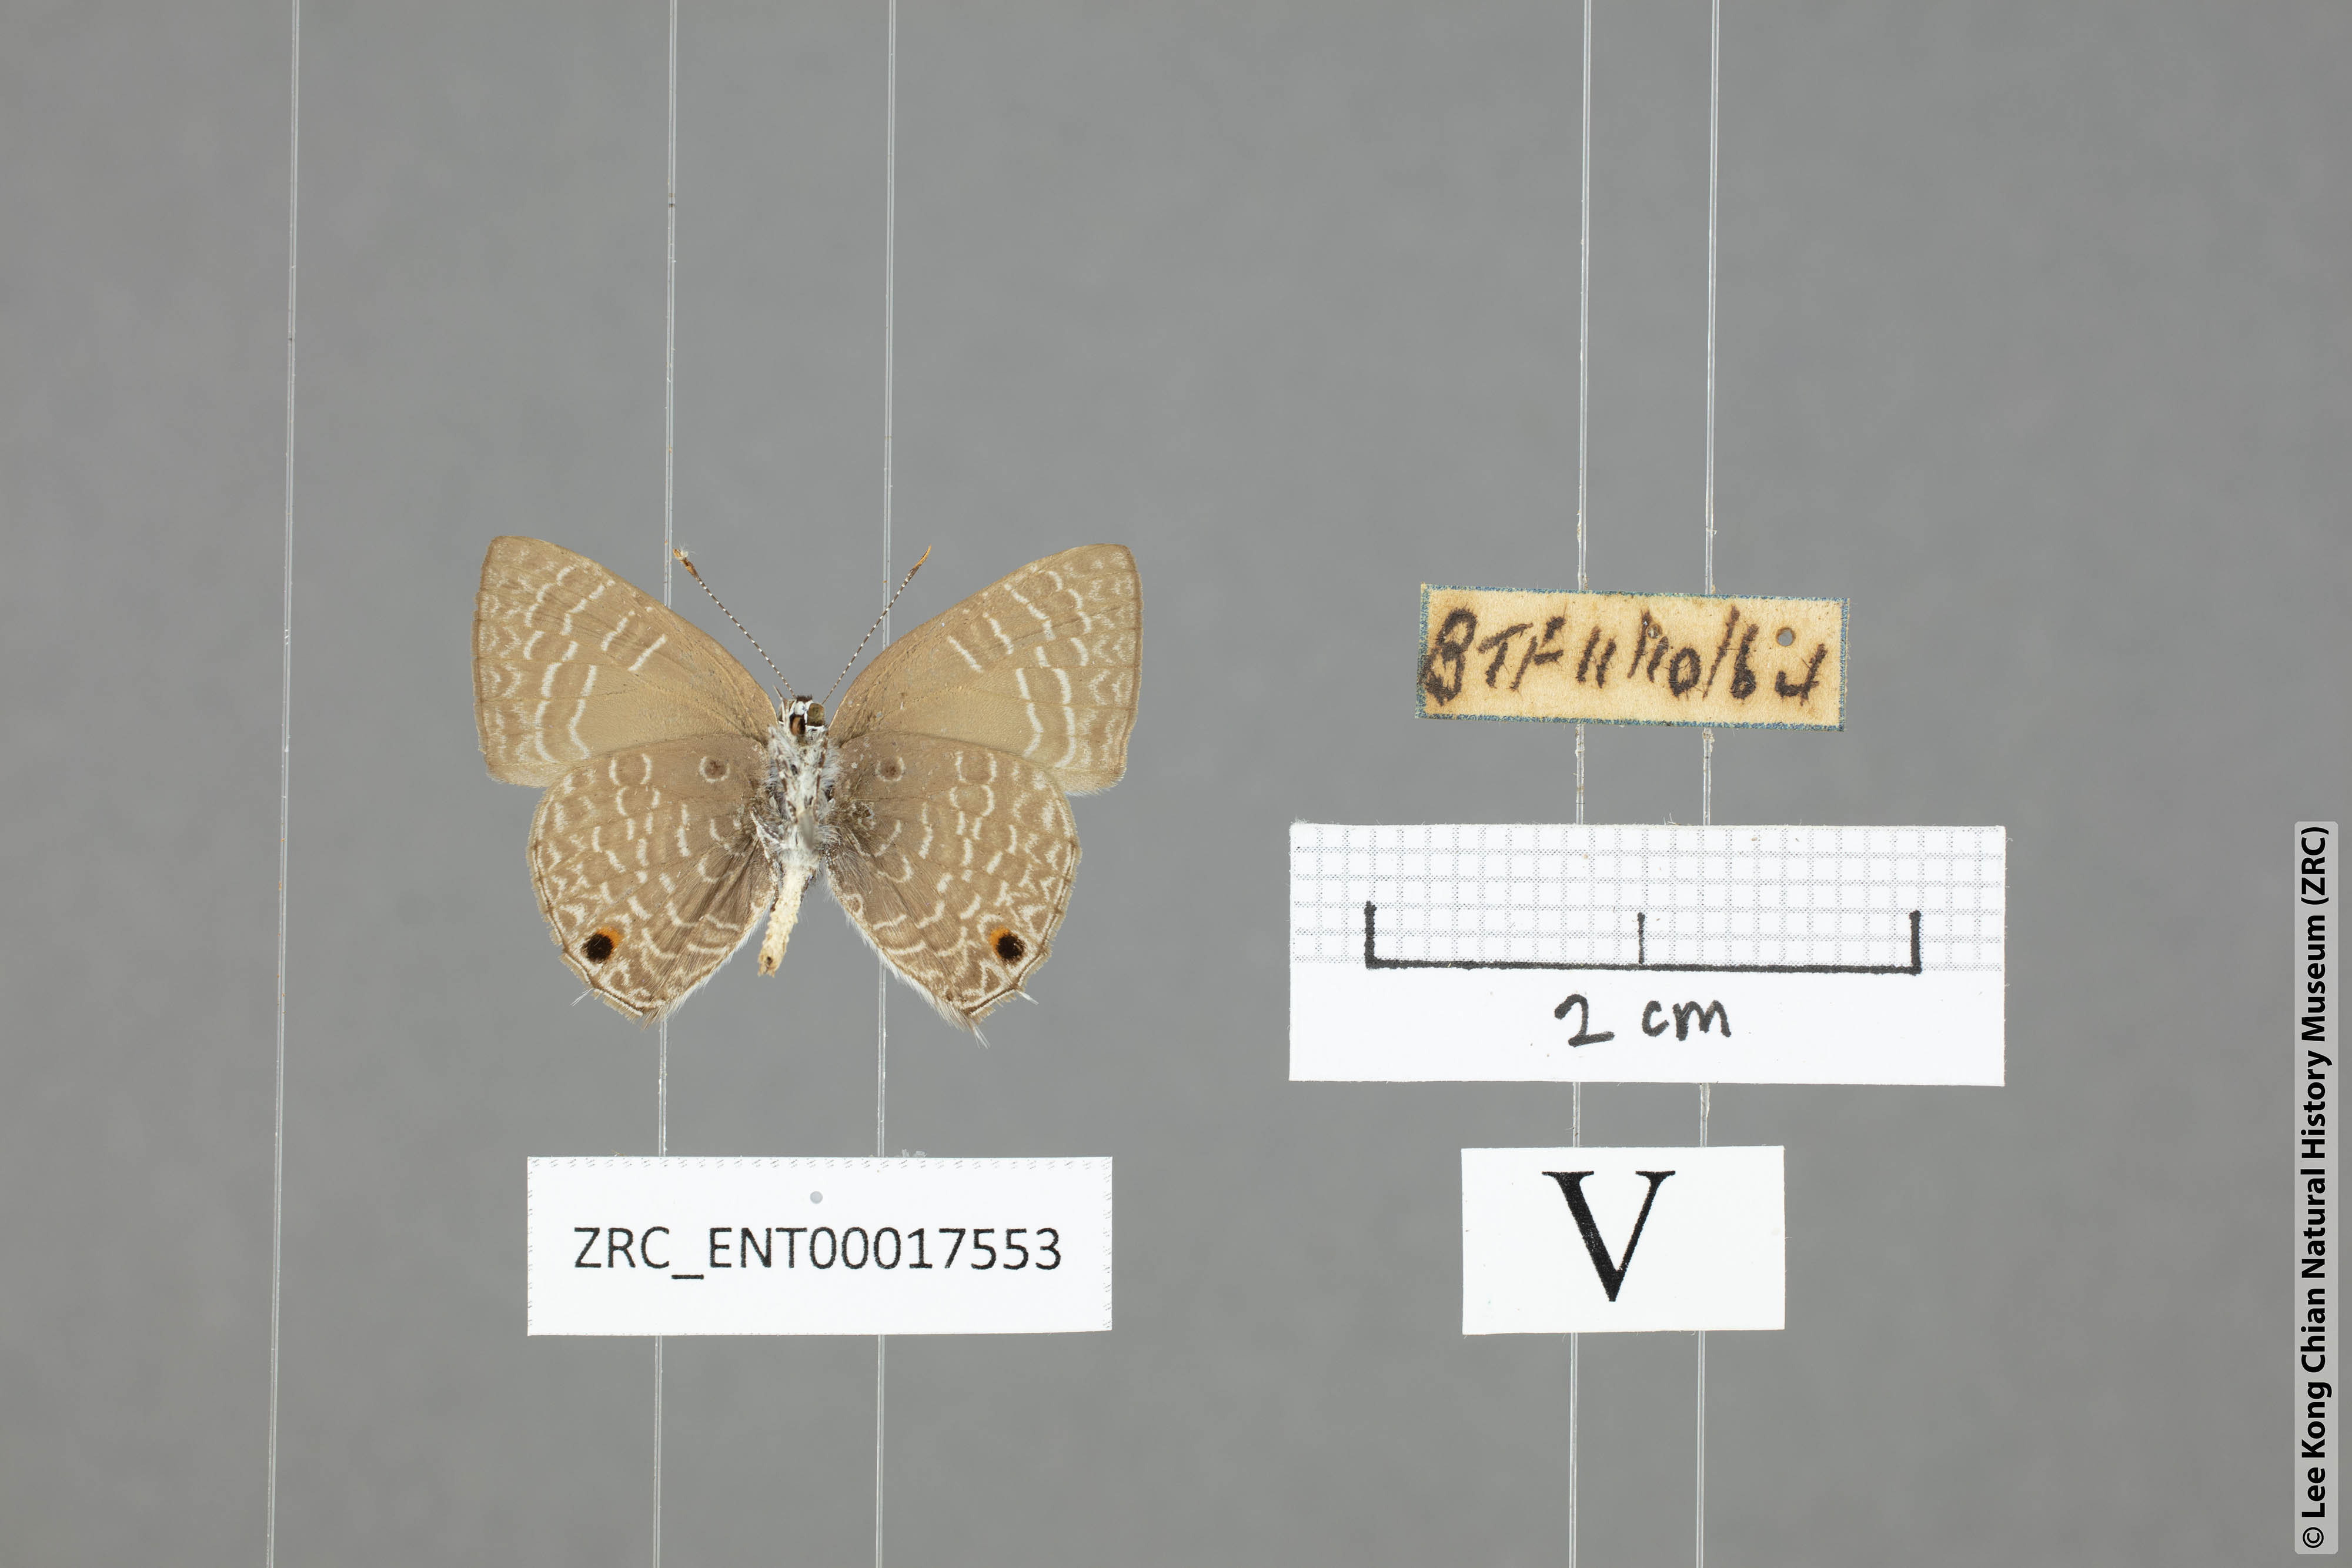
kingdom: Animalia
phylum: Arthropoda
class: Insecta
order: Lepidoptera
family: Lycaenidae
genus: Anthene
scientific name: Anthene lycaenoides
